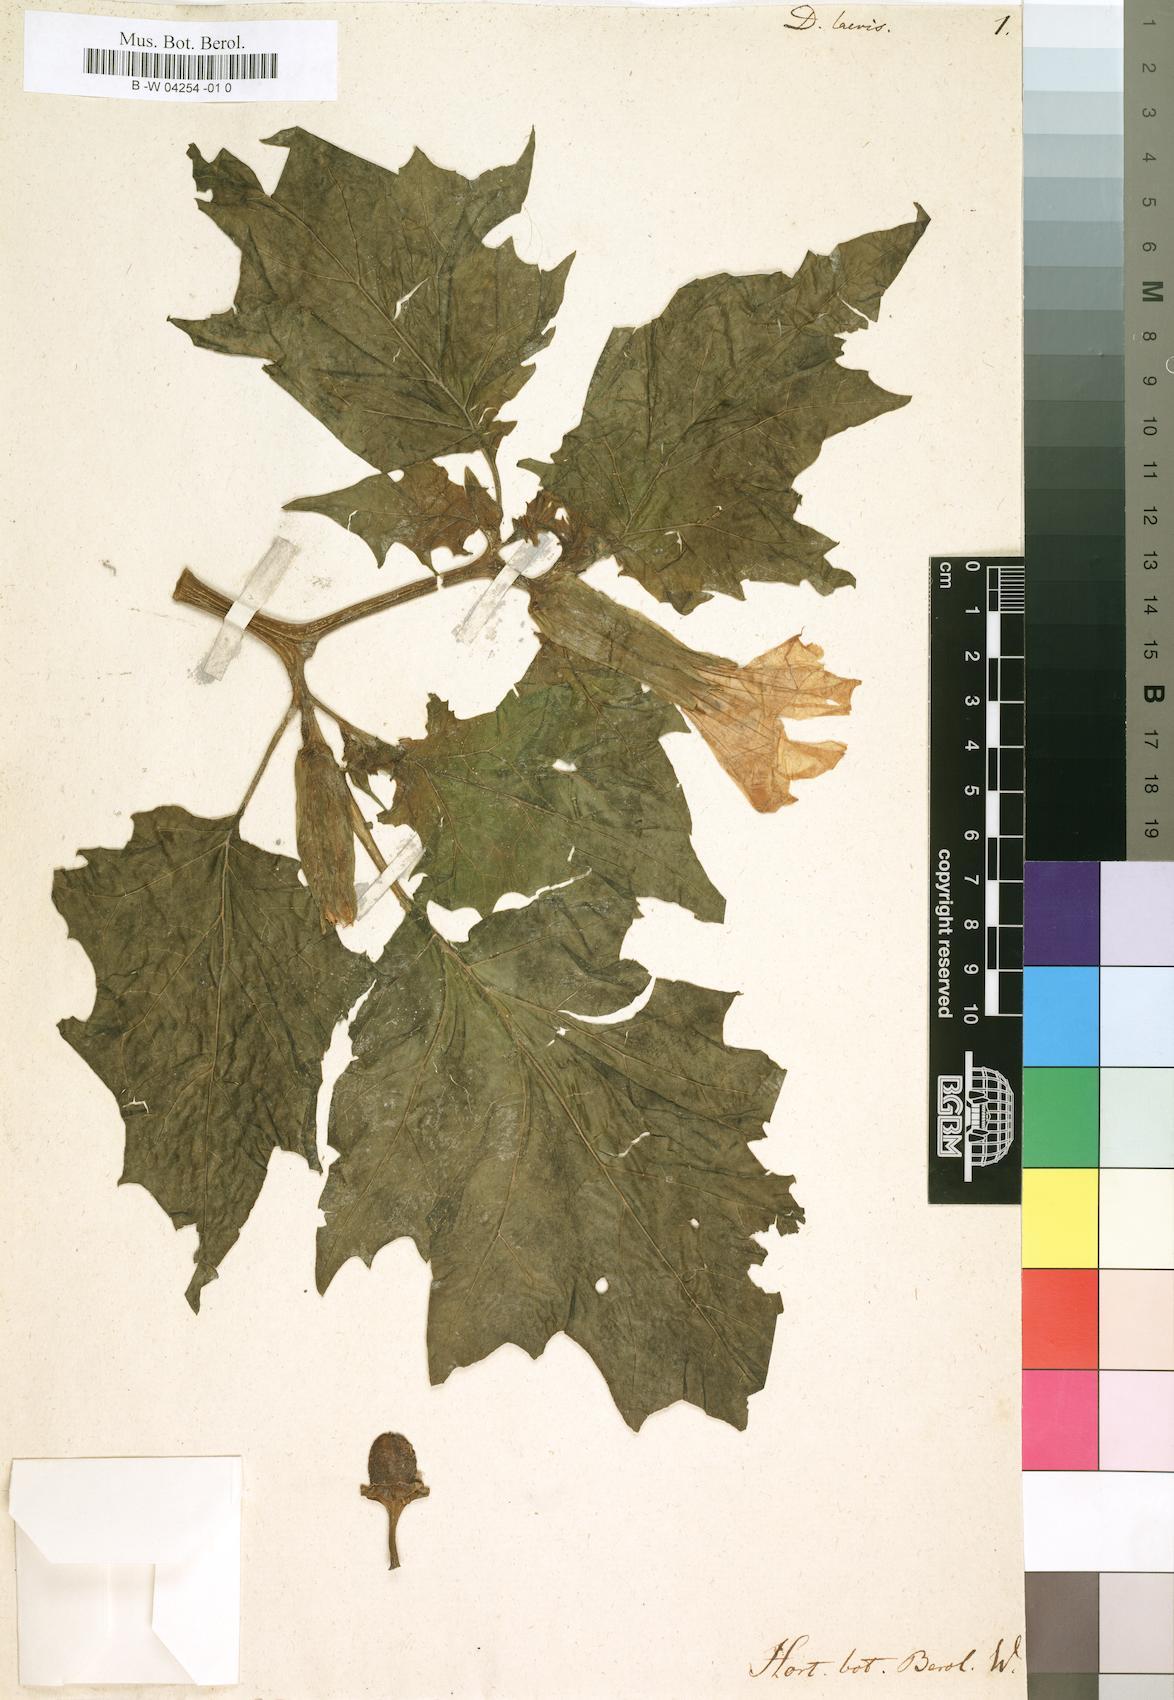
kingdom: Plantae
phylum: Tracheophyta
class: Magnoliopsida
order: Solanales
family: Solanaceae
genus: Datura
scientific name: Datura
